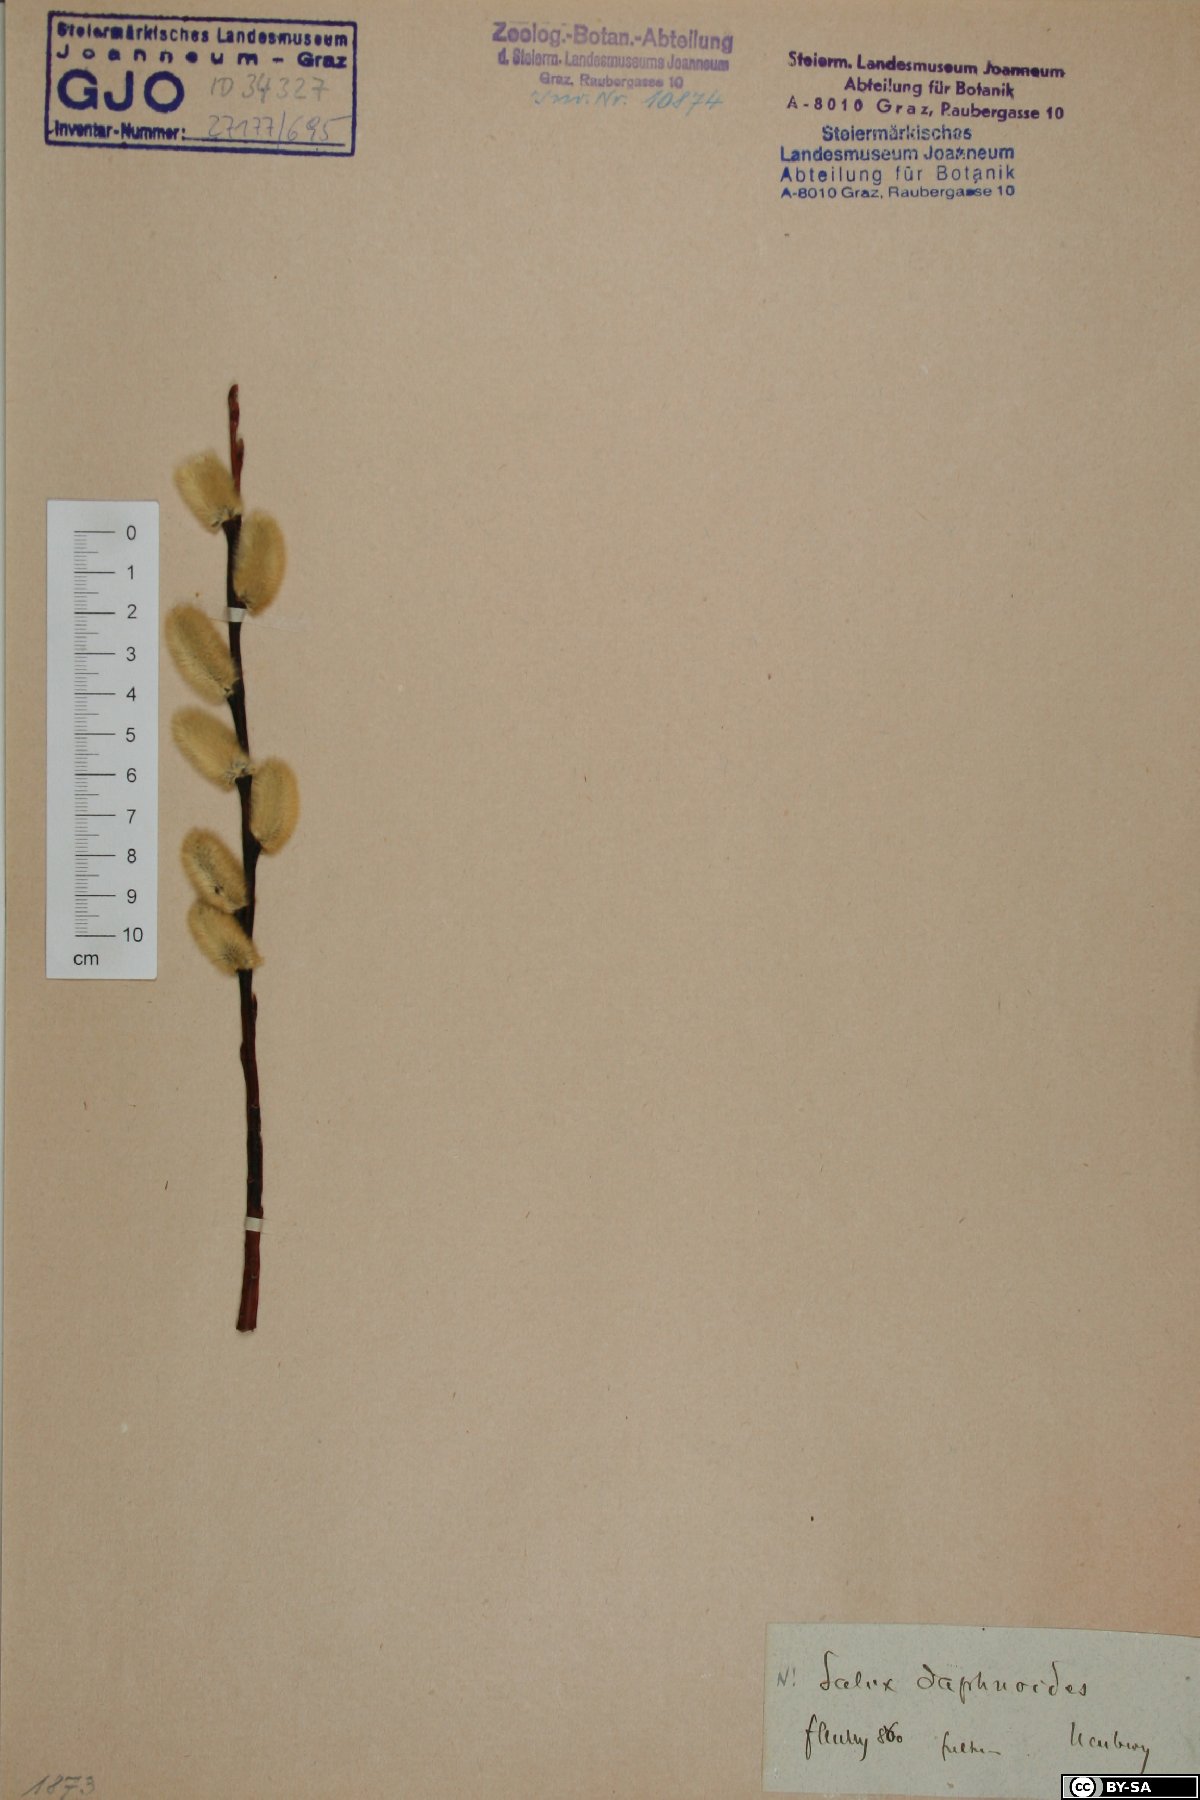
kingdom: Plantae
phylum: Tracheophyta
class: Magnoliopsida
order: Malpighiales
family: Salicaceae
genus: Salix
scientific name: Salix daphnoides
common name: European violet-willow
